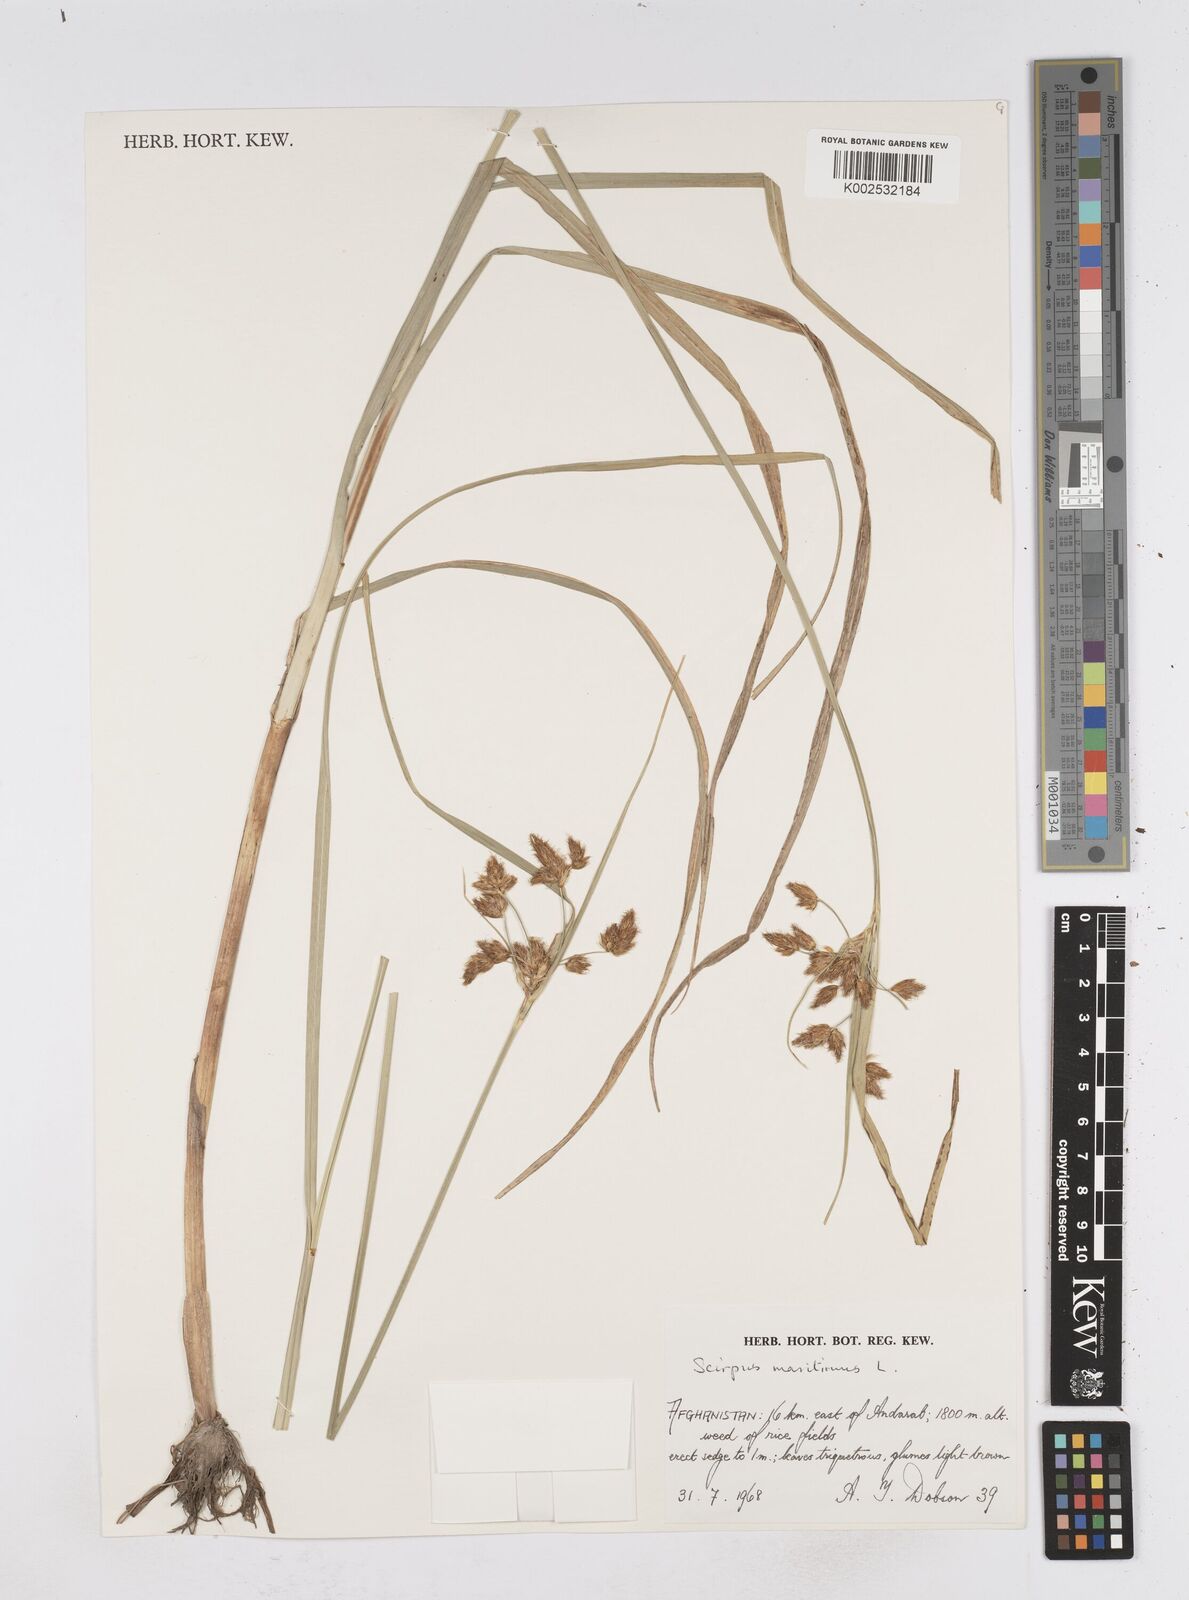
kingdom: Plantae
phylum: Tracheophyta
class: Liliopsida
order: Poales
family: Cyperaceae
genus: Bolboschoenus
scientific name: Bolboschoenus maritimus
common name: Sea club-rush
